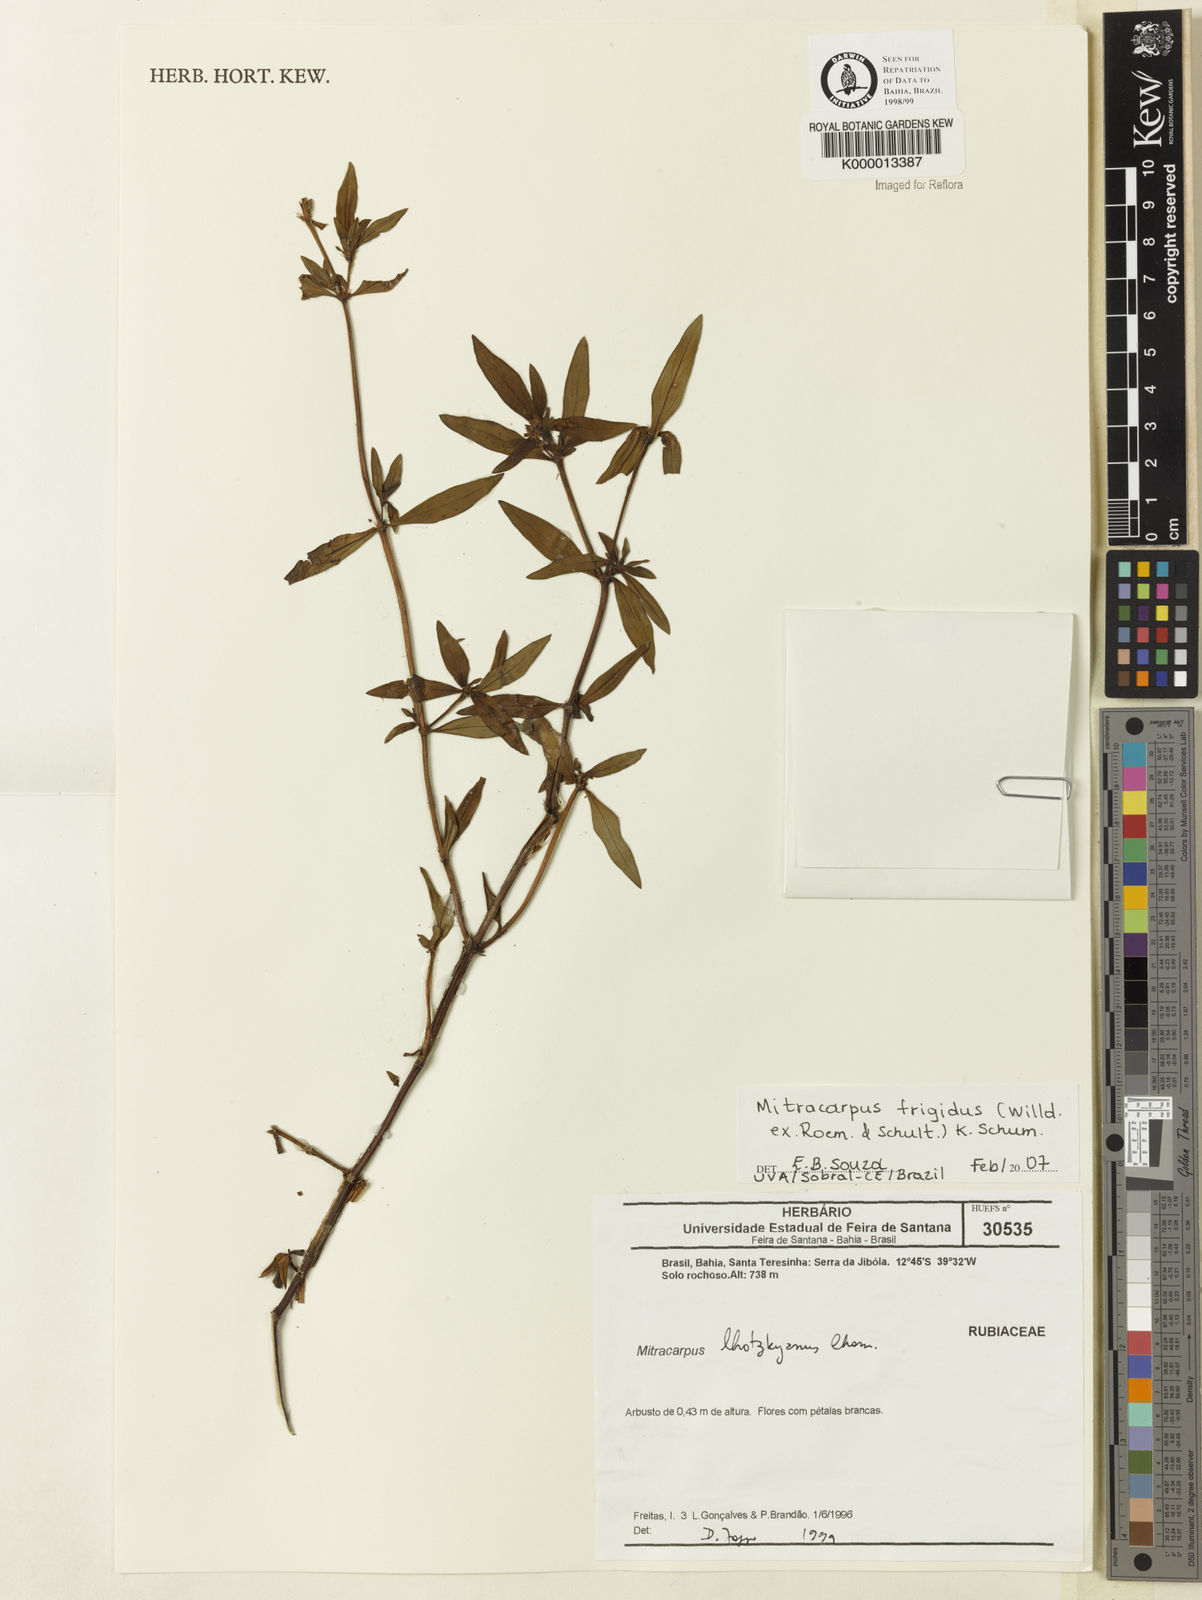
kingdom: Plantae
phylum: Tracheophyta
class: Magnoliopsida
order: Gentianales
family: Rubiaceae
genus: Mitracarpus
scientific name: Mitracarpus frigidus
